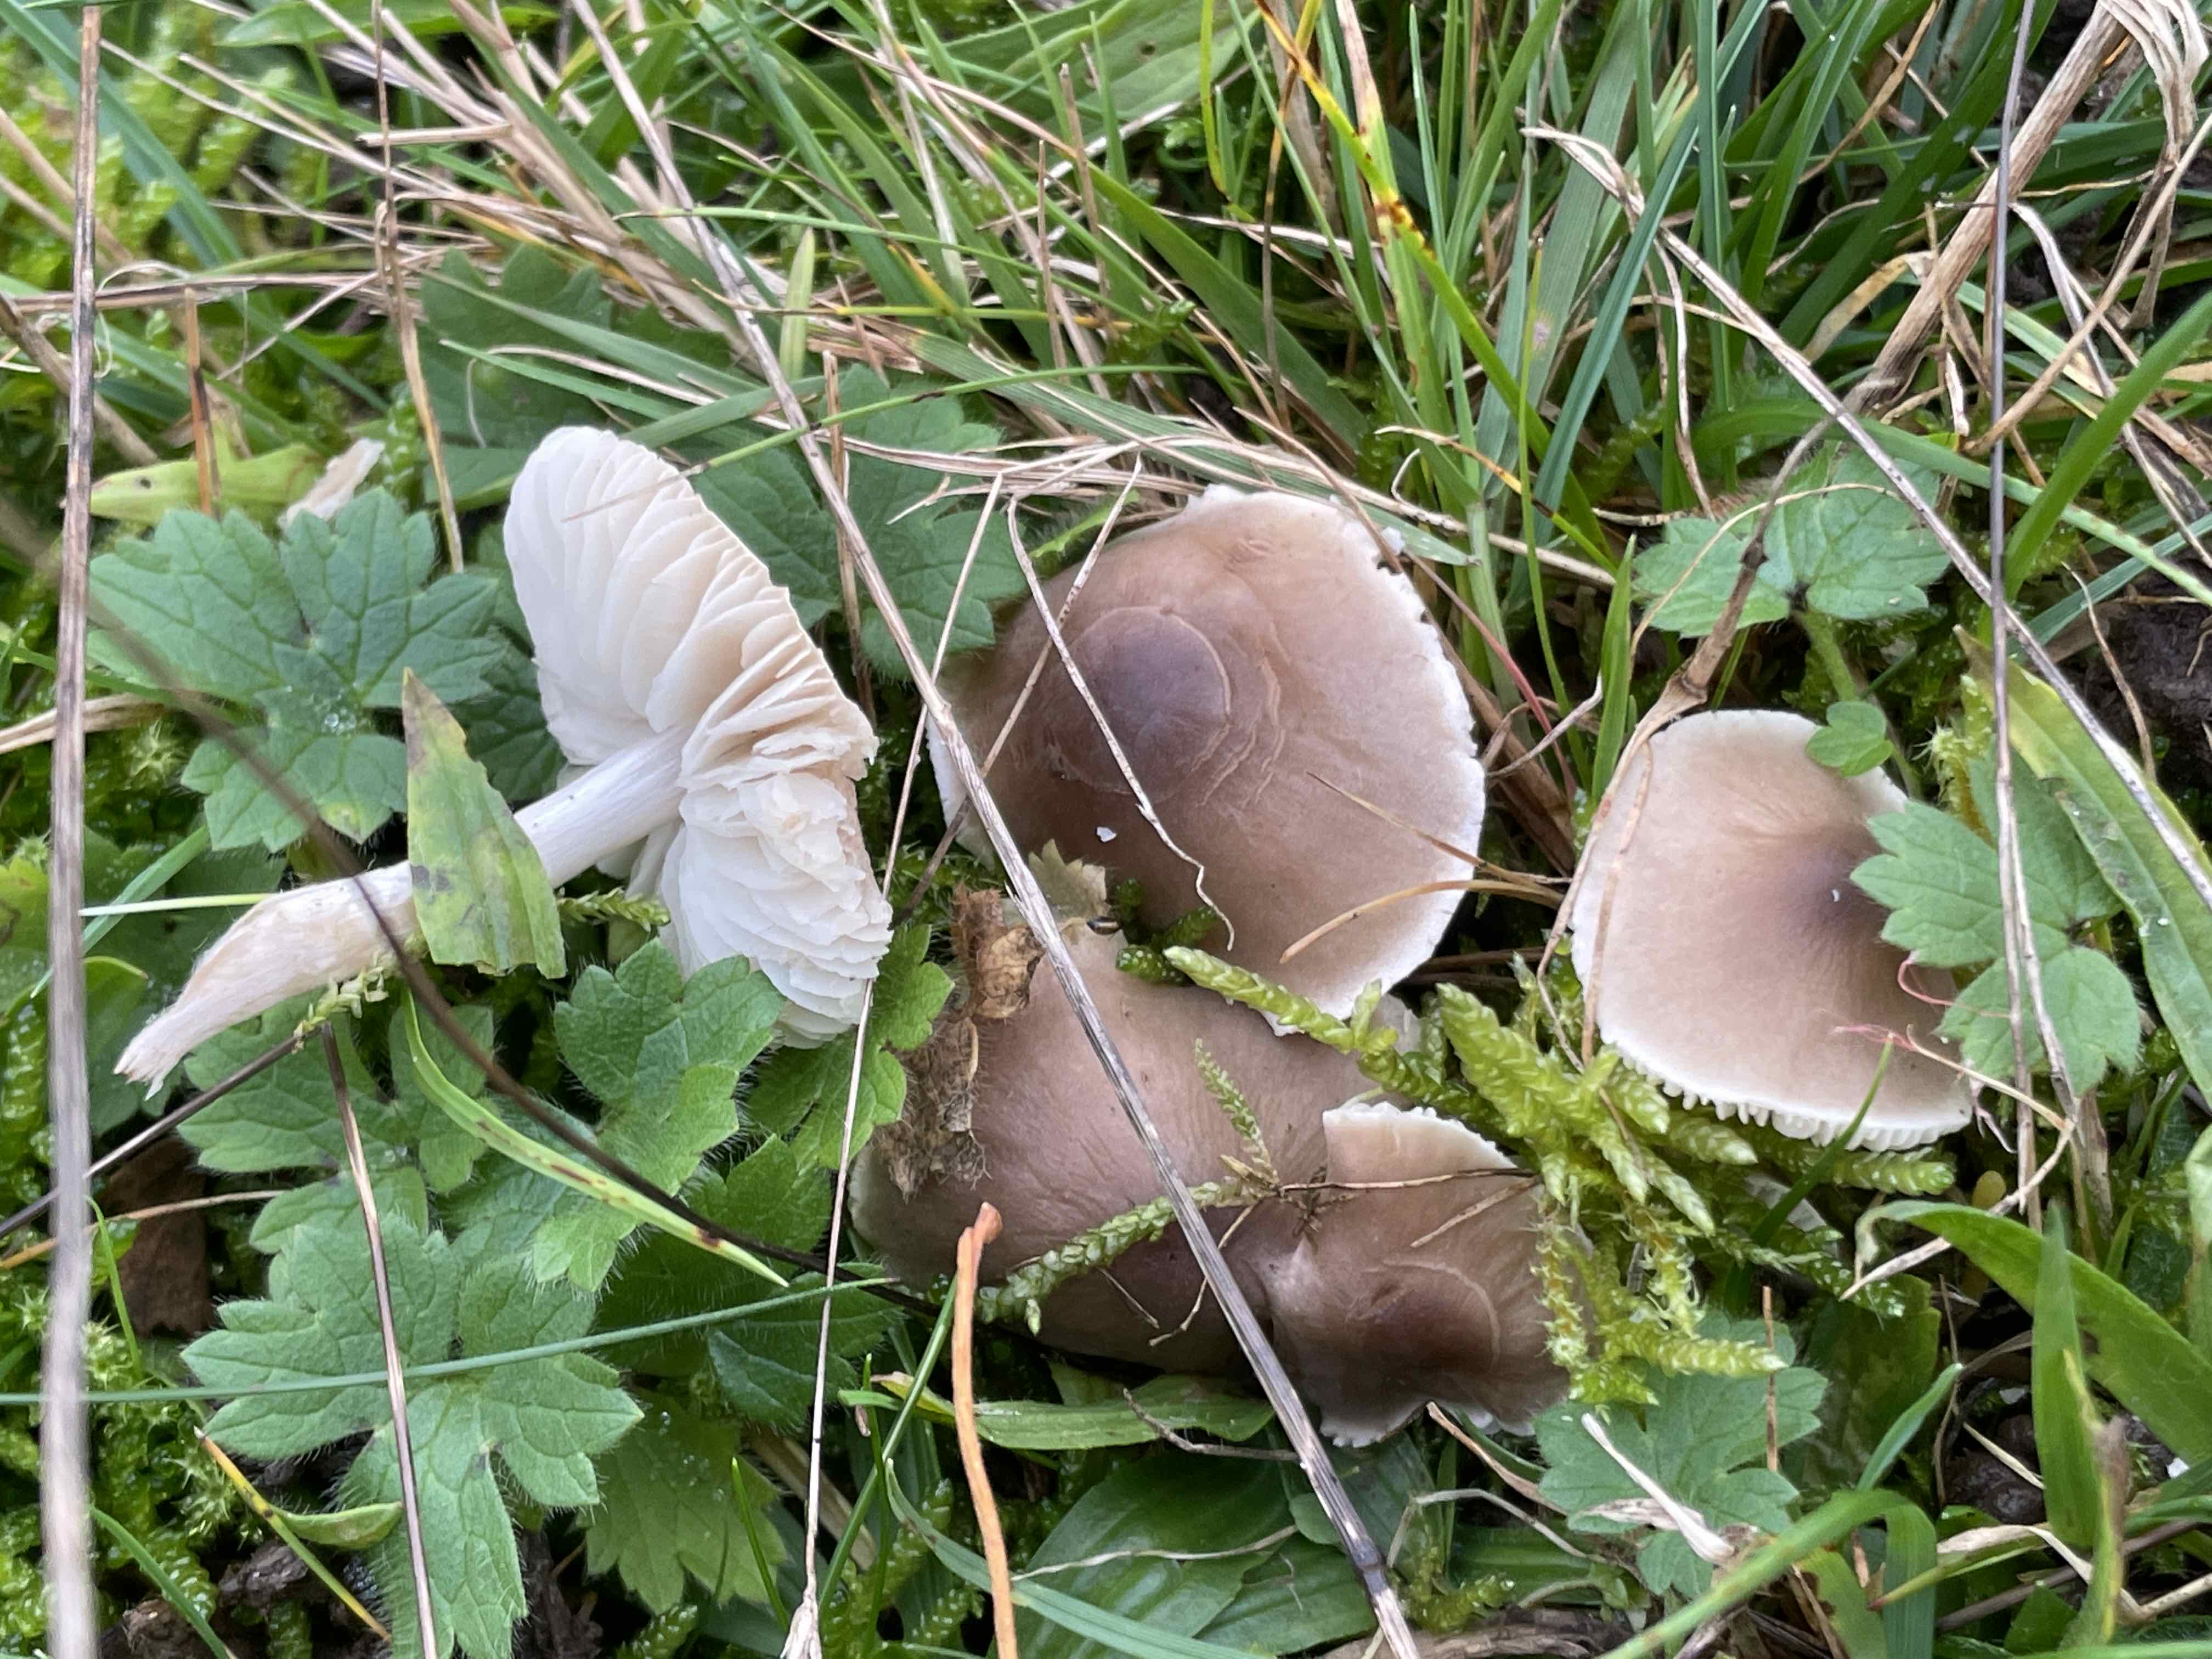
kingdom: Fungi
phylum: Basidiomycota
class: Agaricomycetes
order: Agaricales
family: Tricholomataceae
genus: Dermoloma
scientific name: Dermoloma cuneifolium
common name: eng-nonnehat
